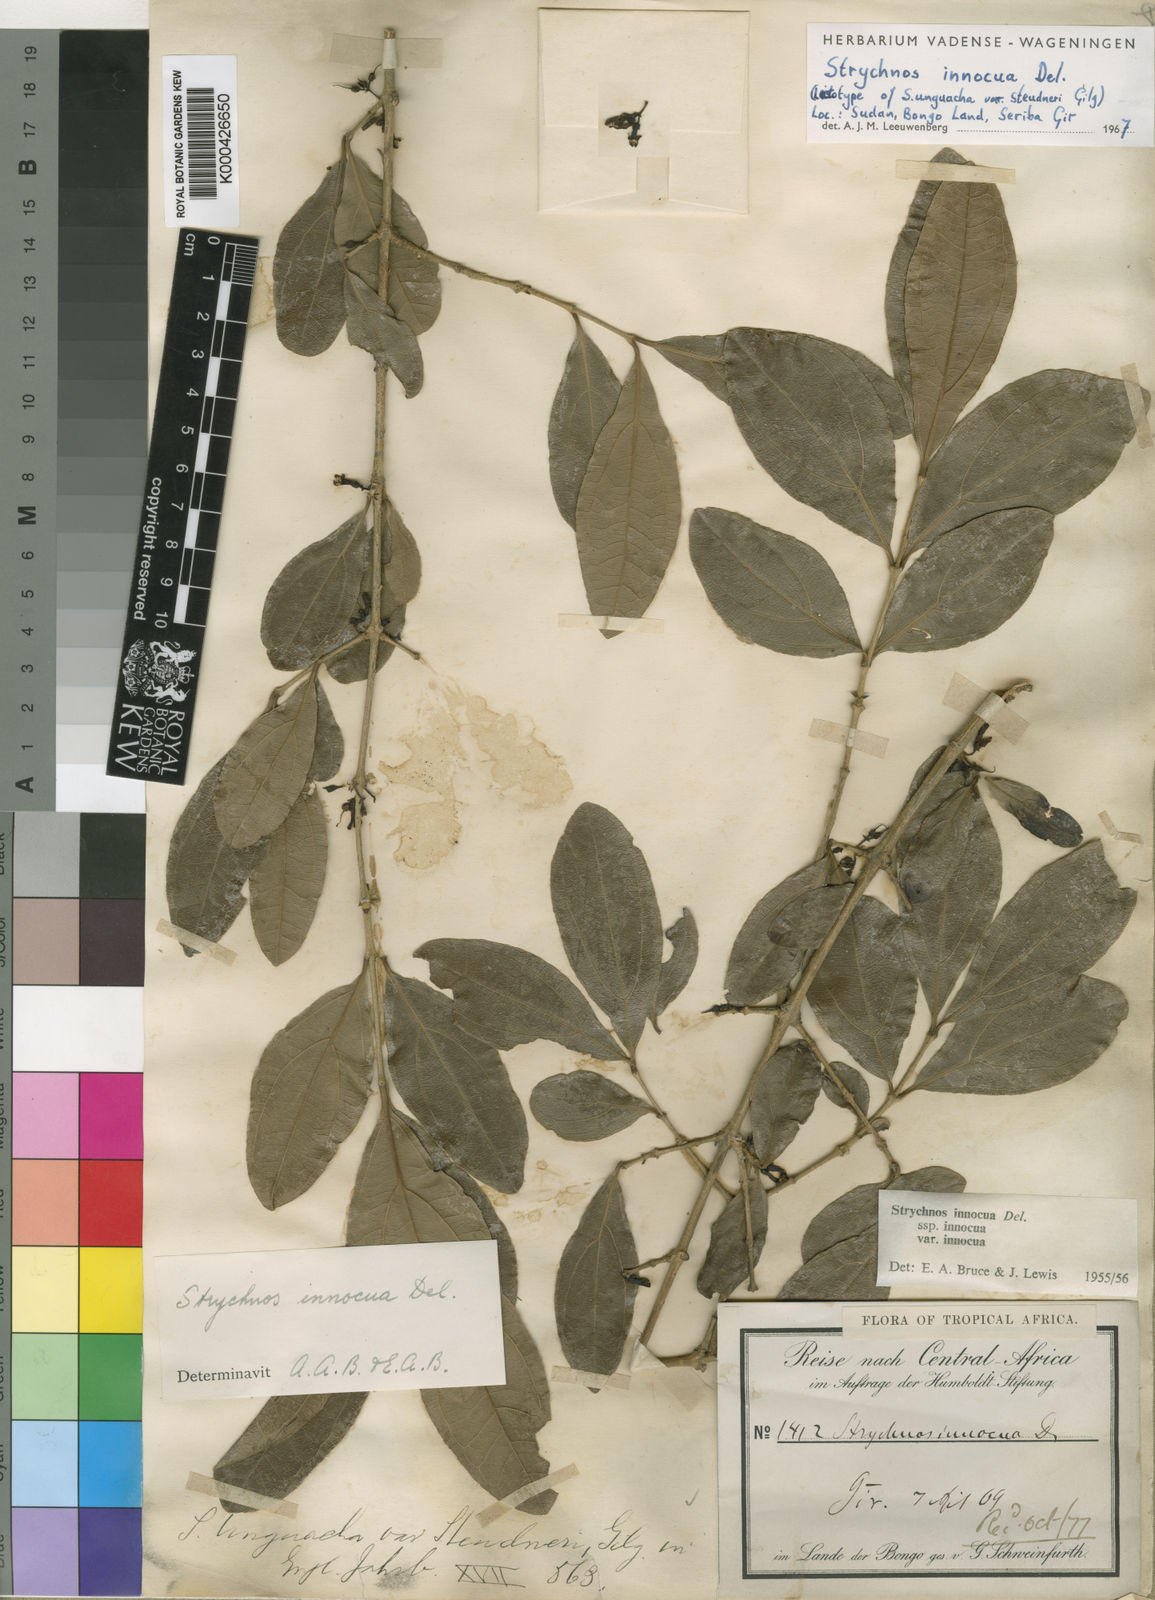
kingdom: Plantae
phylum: Tracheophyta
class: Magnoliopsida
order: Gentianales
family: Loganiaceae
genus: Strychnos
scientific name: Strychnos innocua
